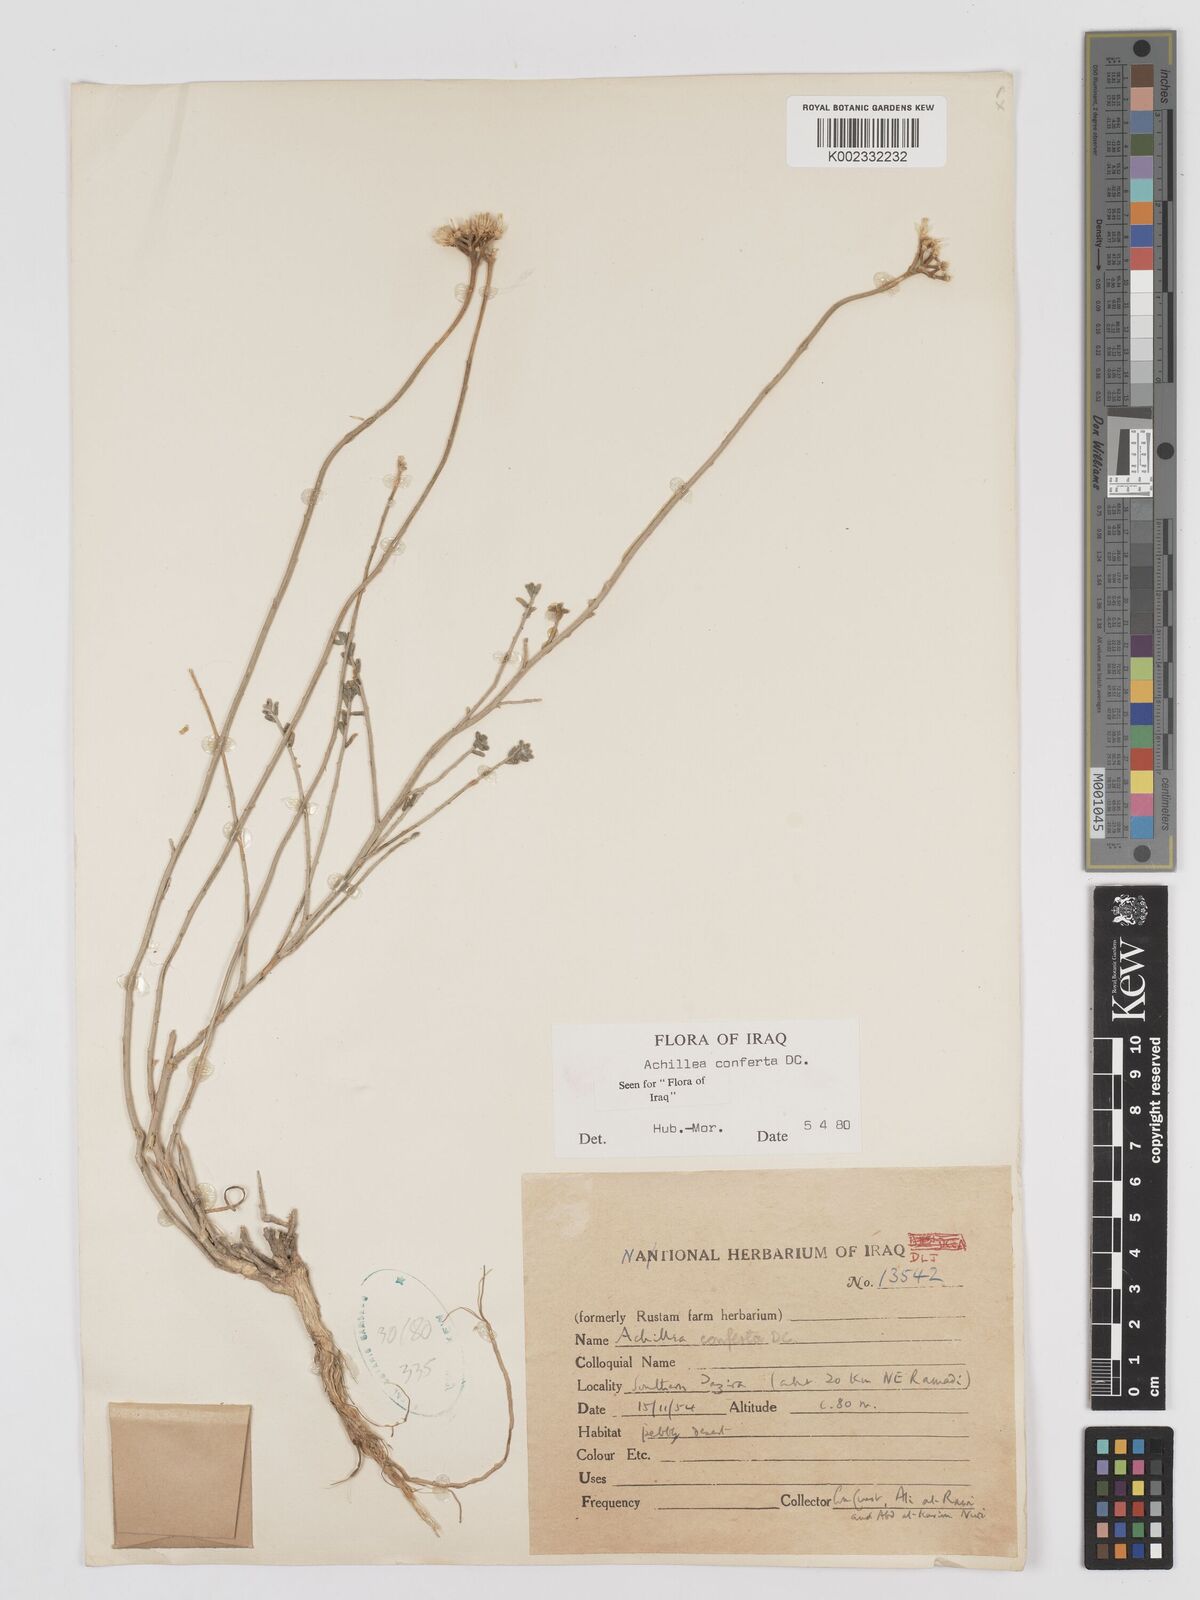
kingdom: Plantae
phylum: Tracheophyta
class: Magnoliopsida
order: Asterales
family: Asteraceae
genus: Achillea
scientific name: Achillea conferta
